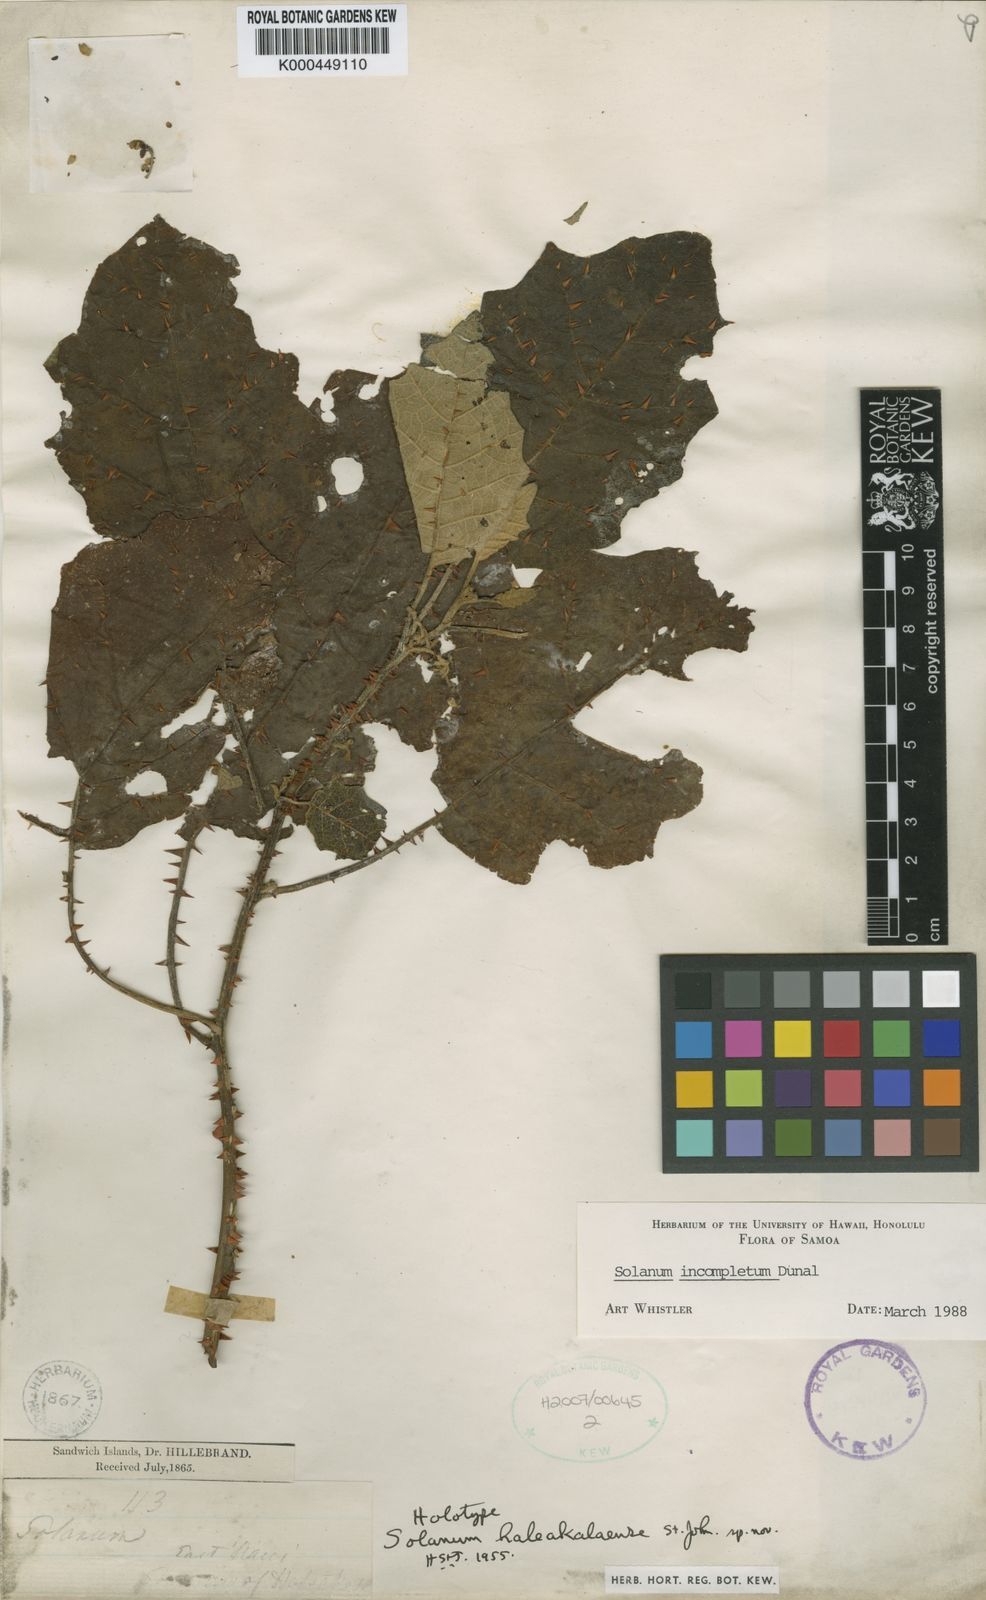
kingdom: Plantae
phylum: Tracheophyta
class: Magnoliopsida
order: Solanales
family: Solanaceae
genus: Solanum
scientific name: Solanum hillebrandii
